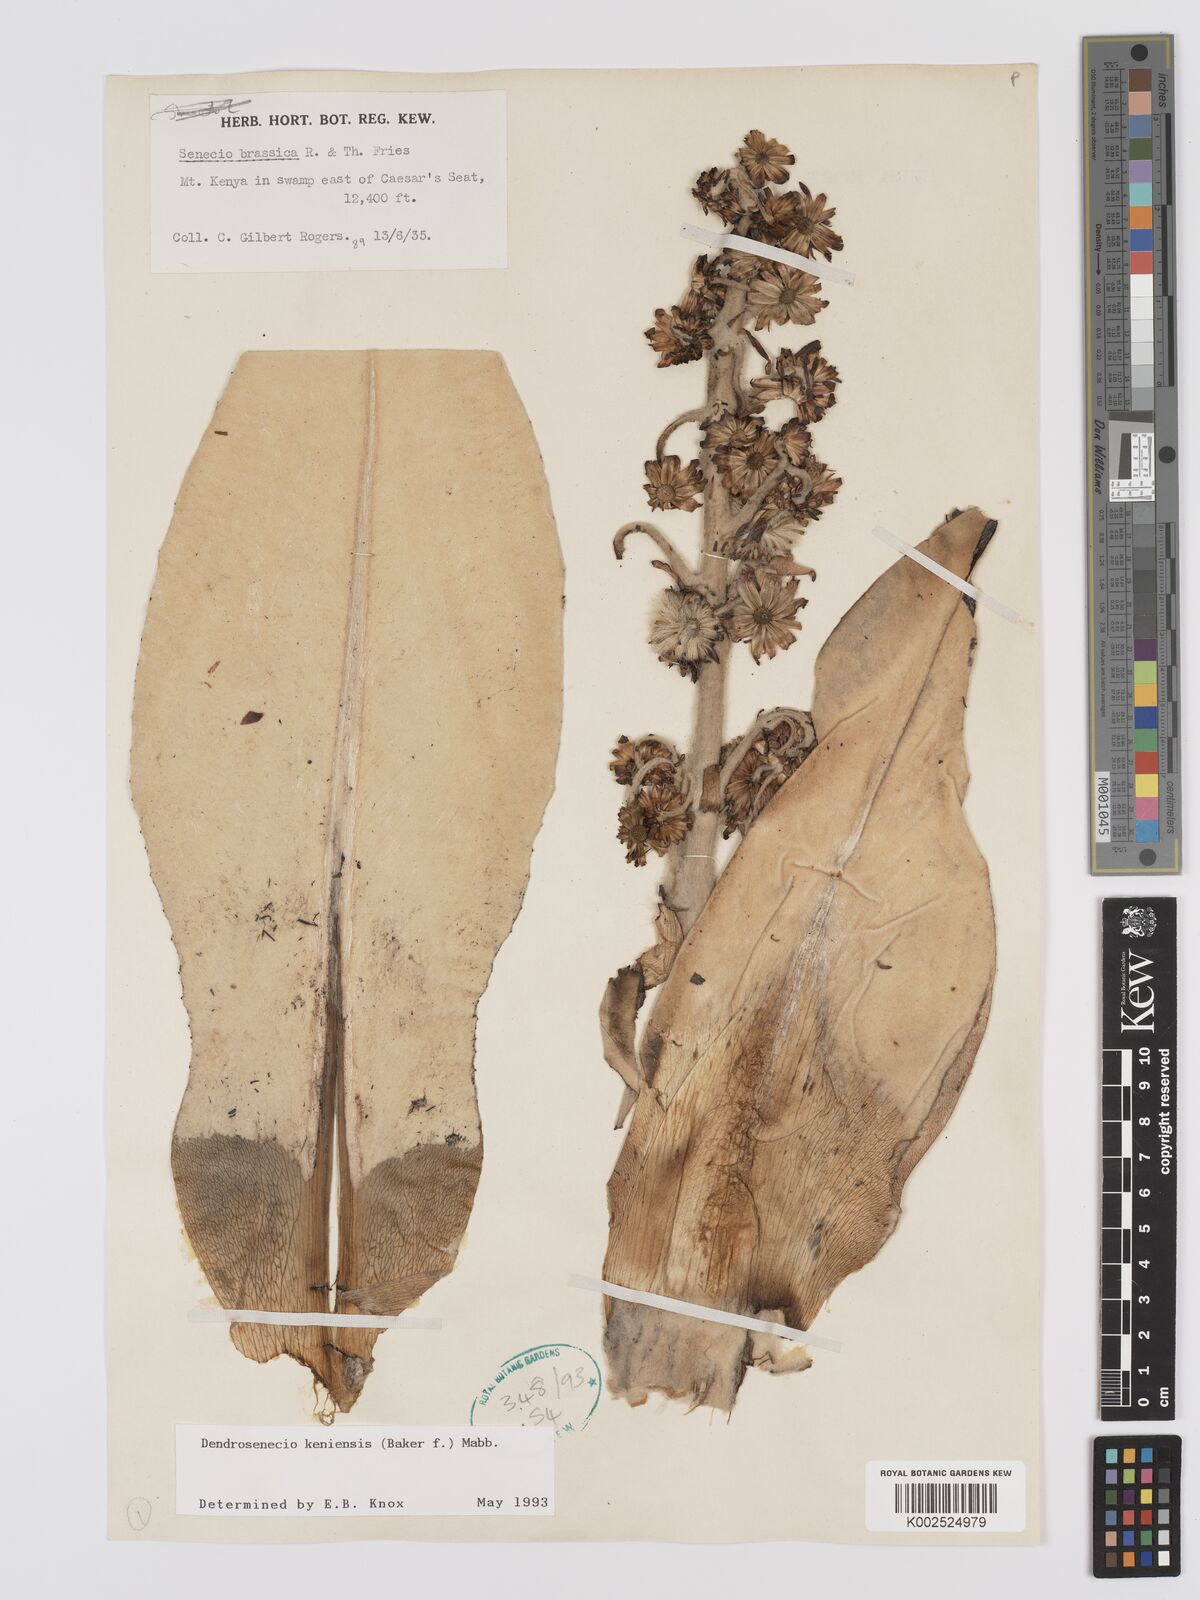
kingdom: Plantae
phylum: Tracheophyta
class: Magnoliopsida
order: Asterales
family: Asteraceae
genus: Dendrosenecio
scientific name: Dendrosenecio keniensis
